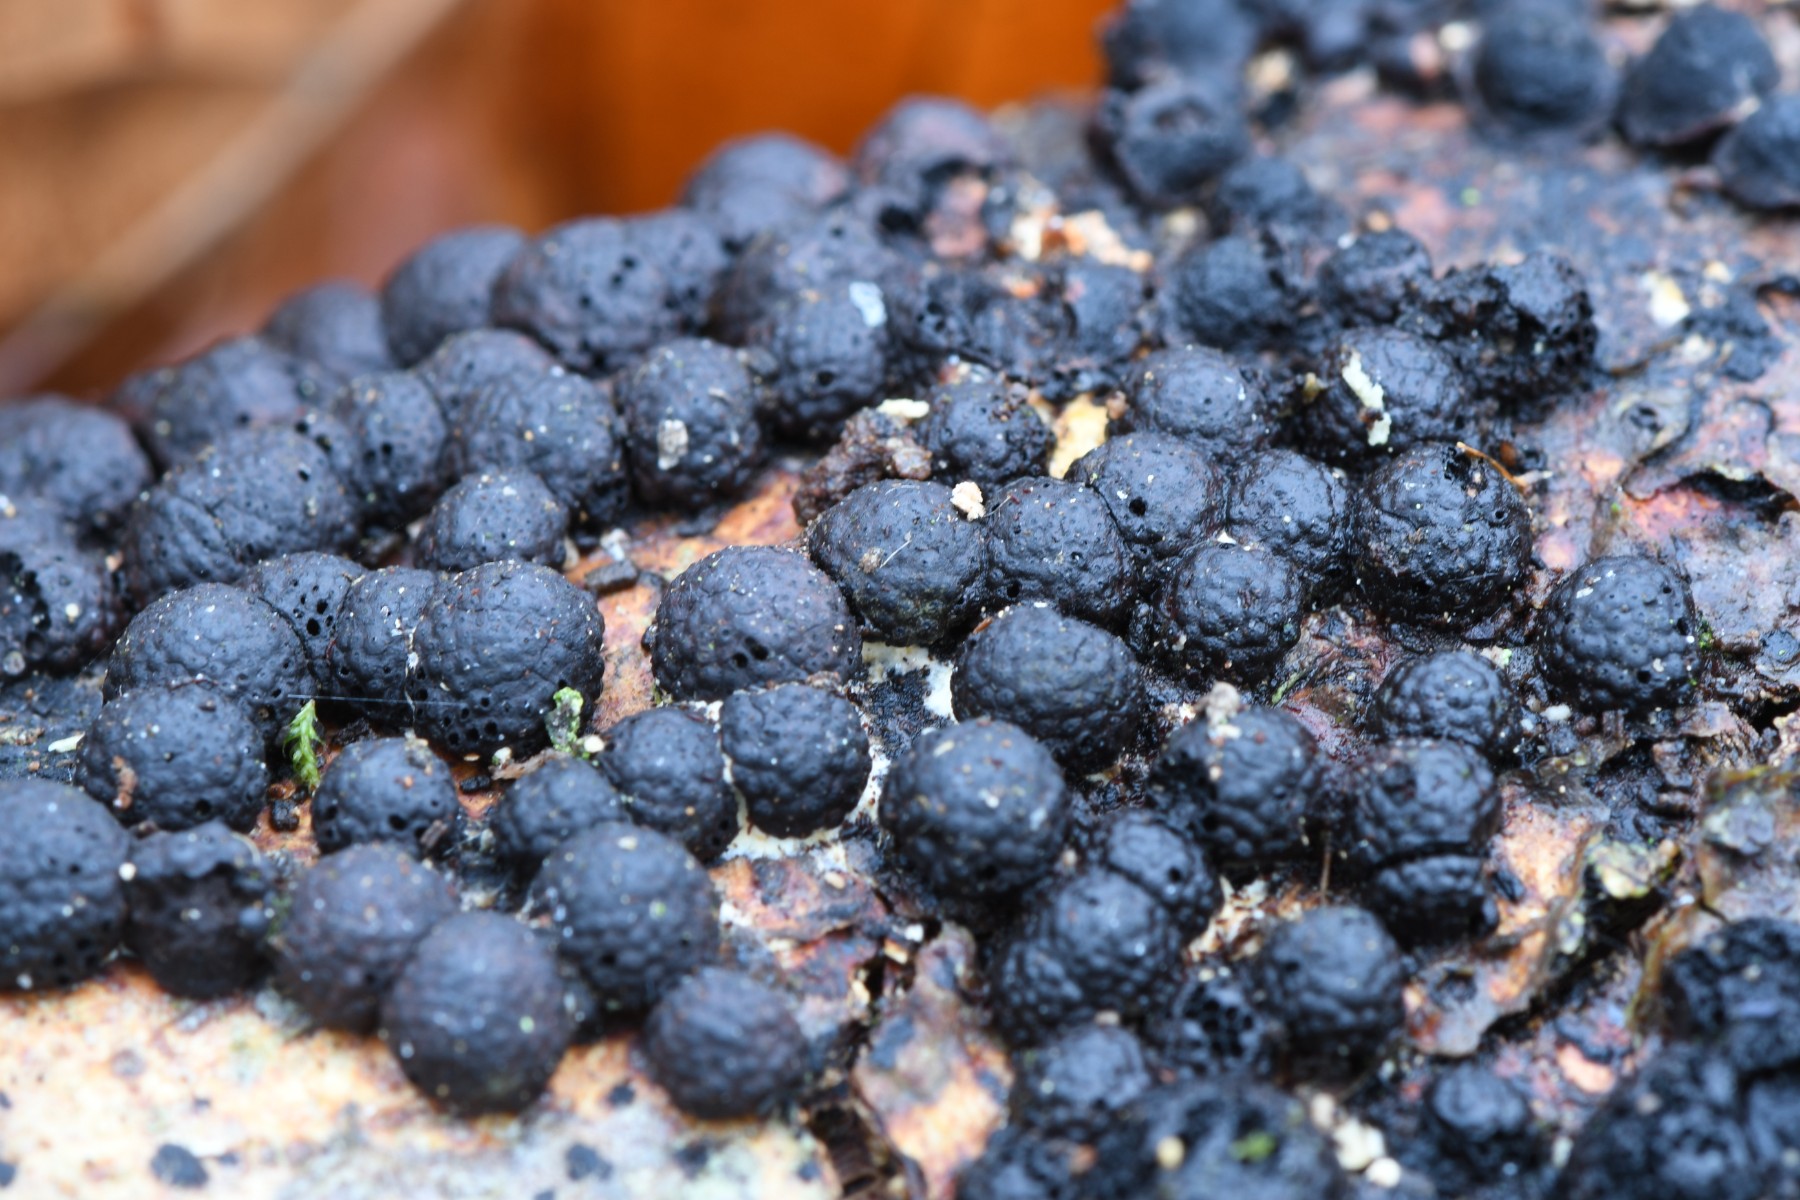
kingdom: Fungi
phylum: Ascomycota
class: Sordariomycetes
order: Xylariales
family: Hypoxylaceae
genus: Hypoxylon
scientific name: Hypoxylon fragiforme
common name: kuljordbær
